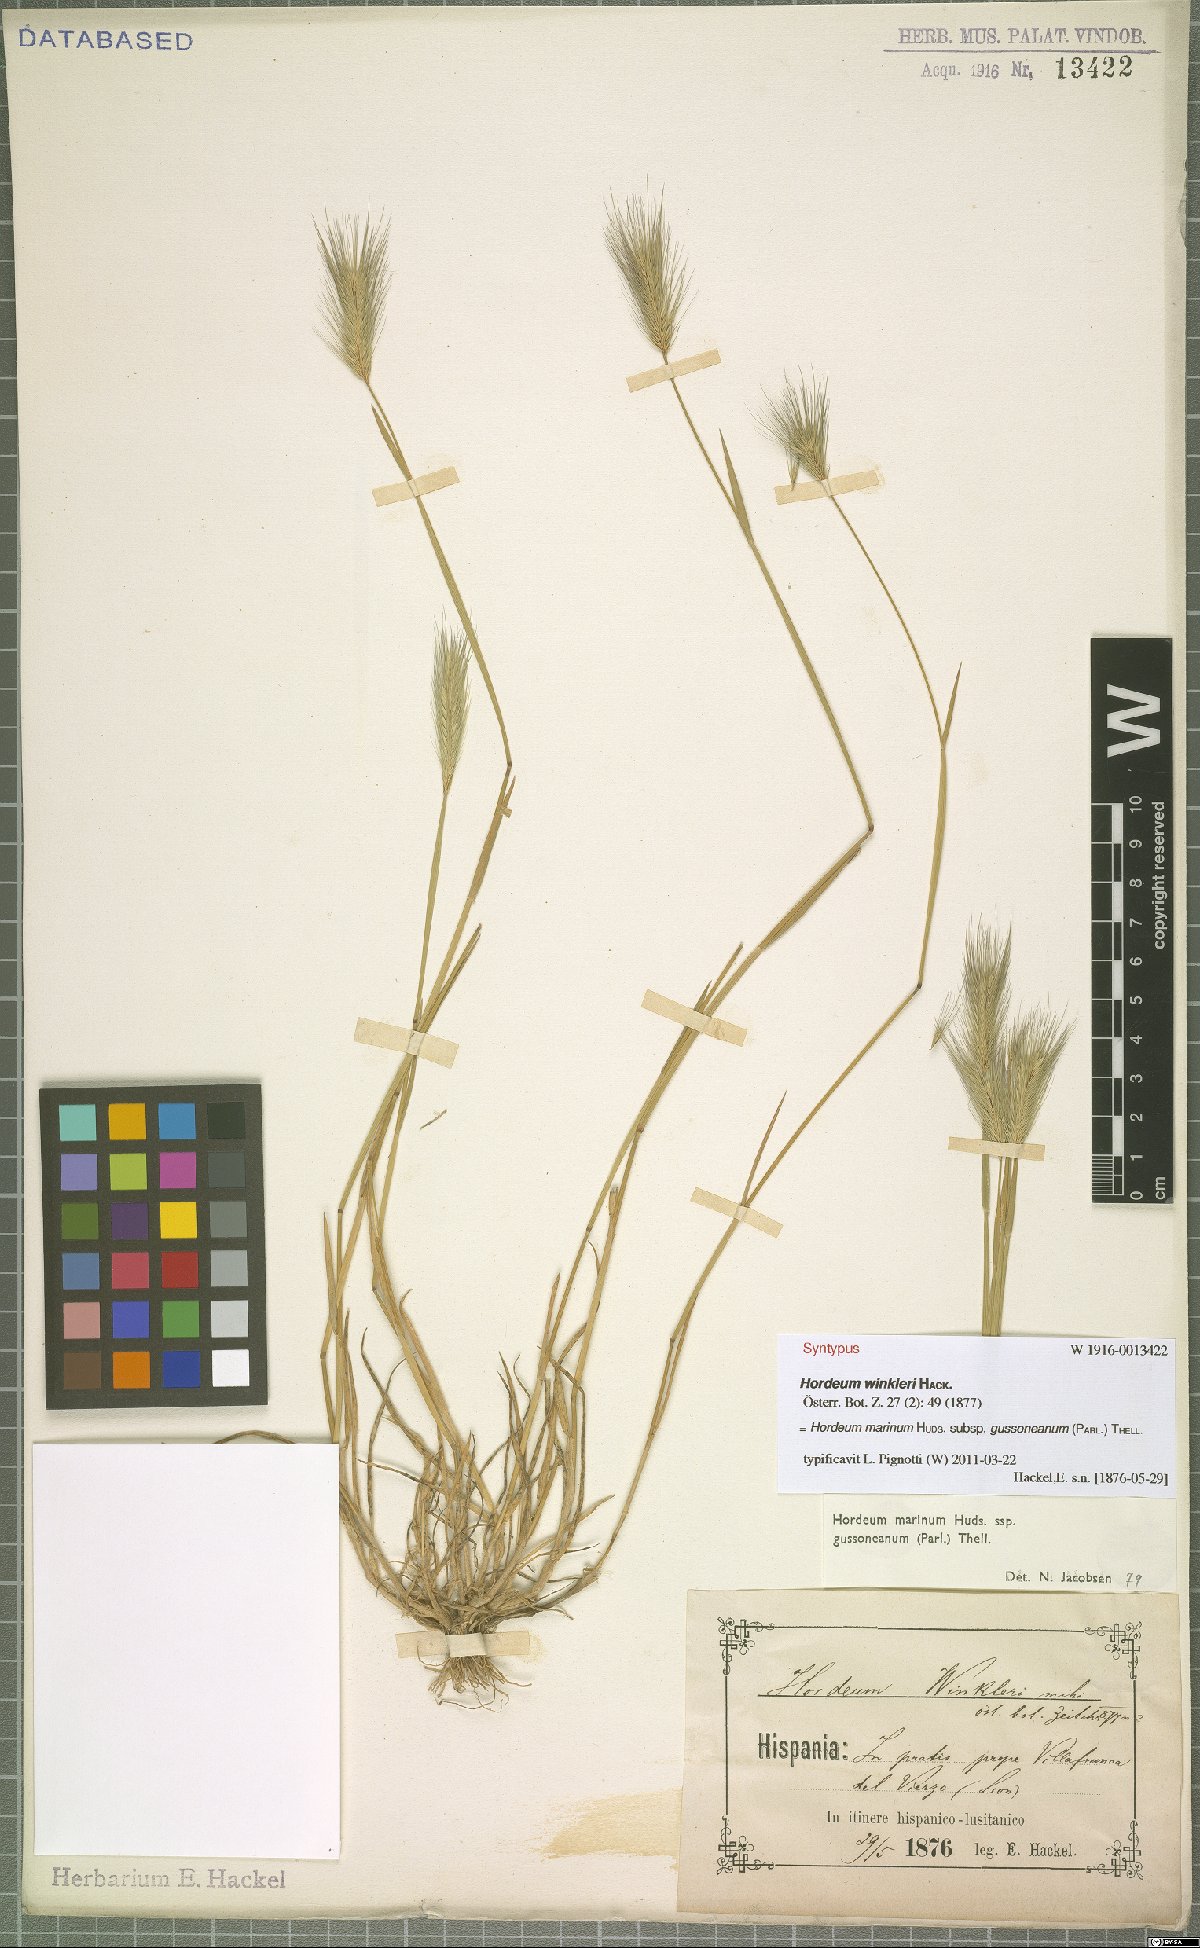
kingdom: Plantae
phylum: Tracheophyta
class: Liliopsida
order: Poales
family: Poaceae
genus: Hordeum
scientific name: Hordeum marinum
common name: Sea barley
